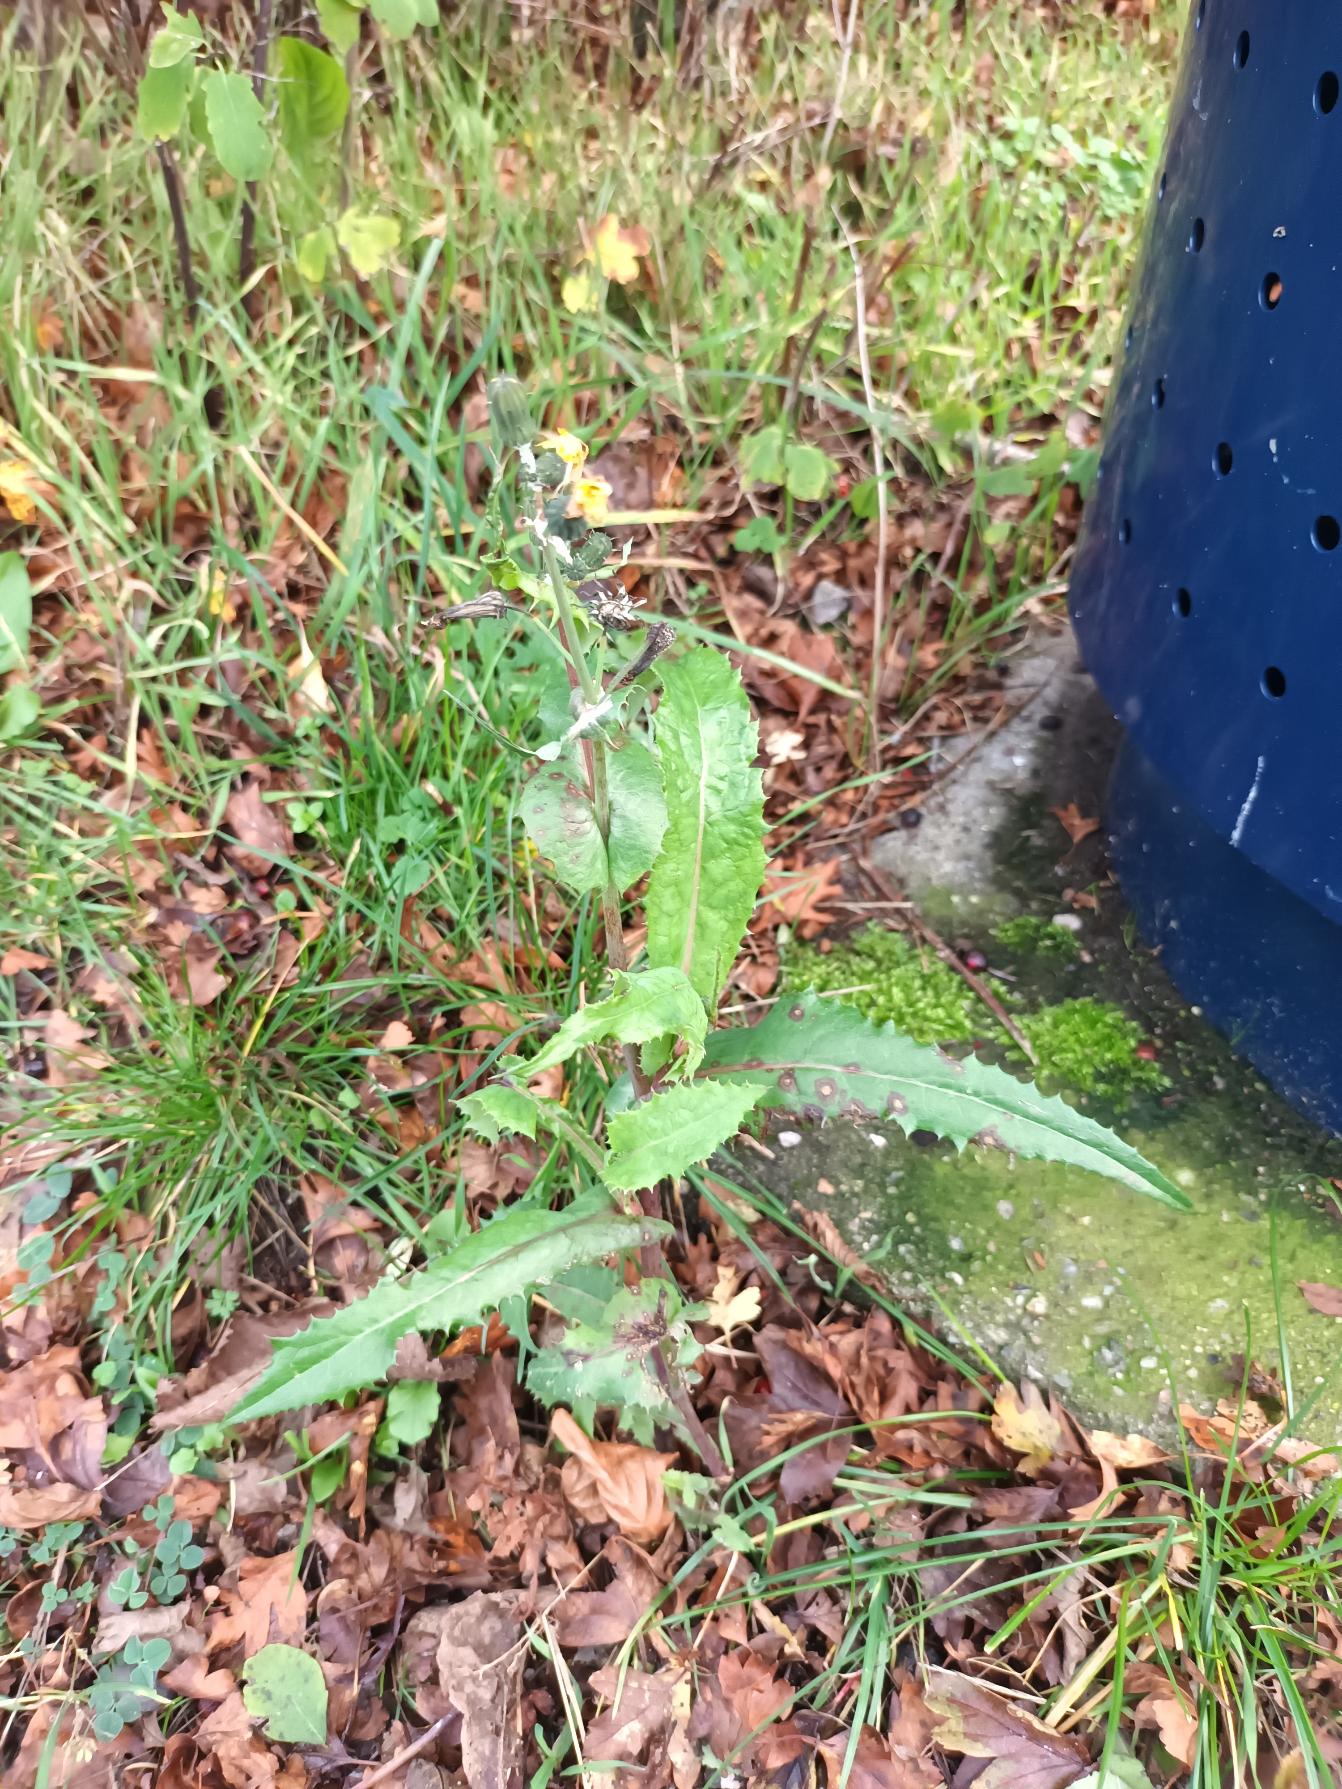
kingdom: Plantae
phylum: Tracheophyta
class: Magnoliopsida
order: Asterales
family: Asteraceae
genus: Sonchus
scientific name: Sonchus oleraceus
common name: Almindelig svinemælk
